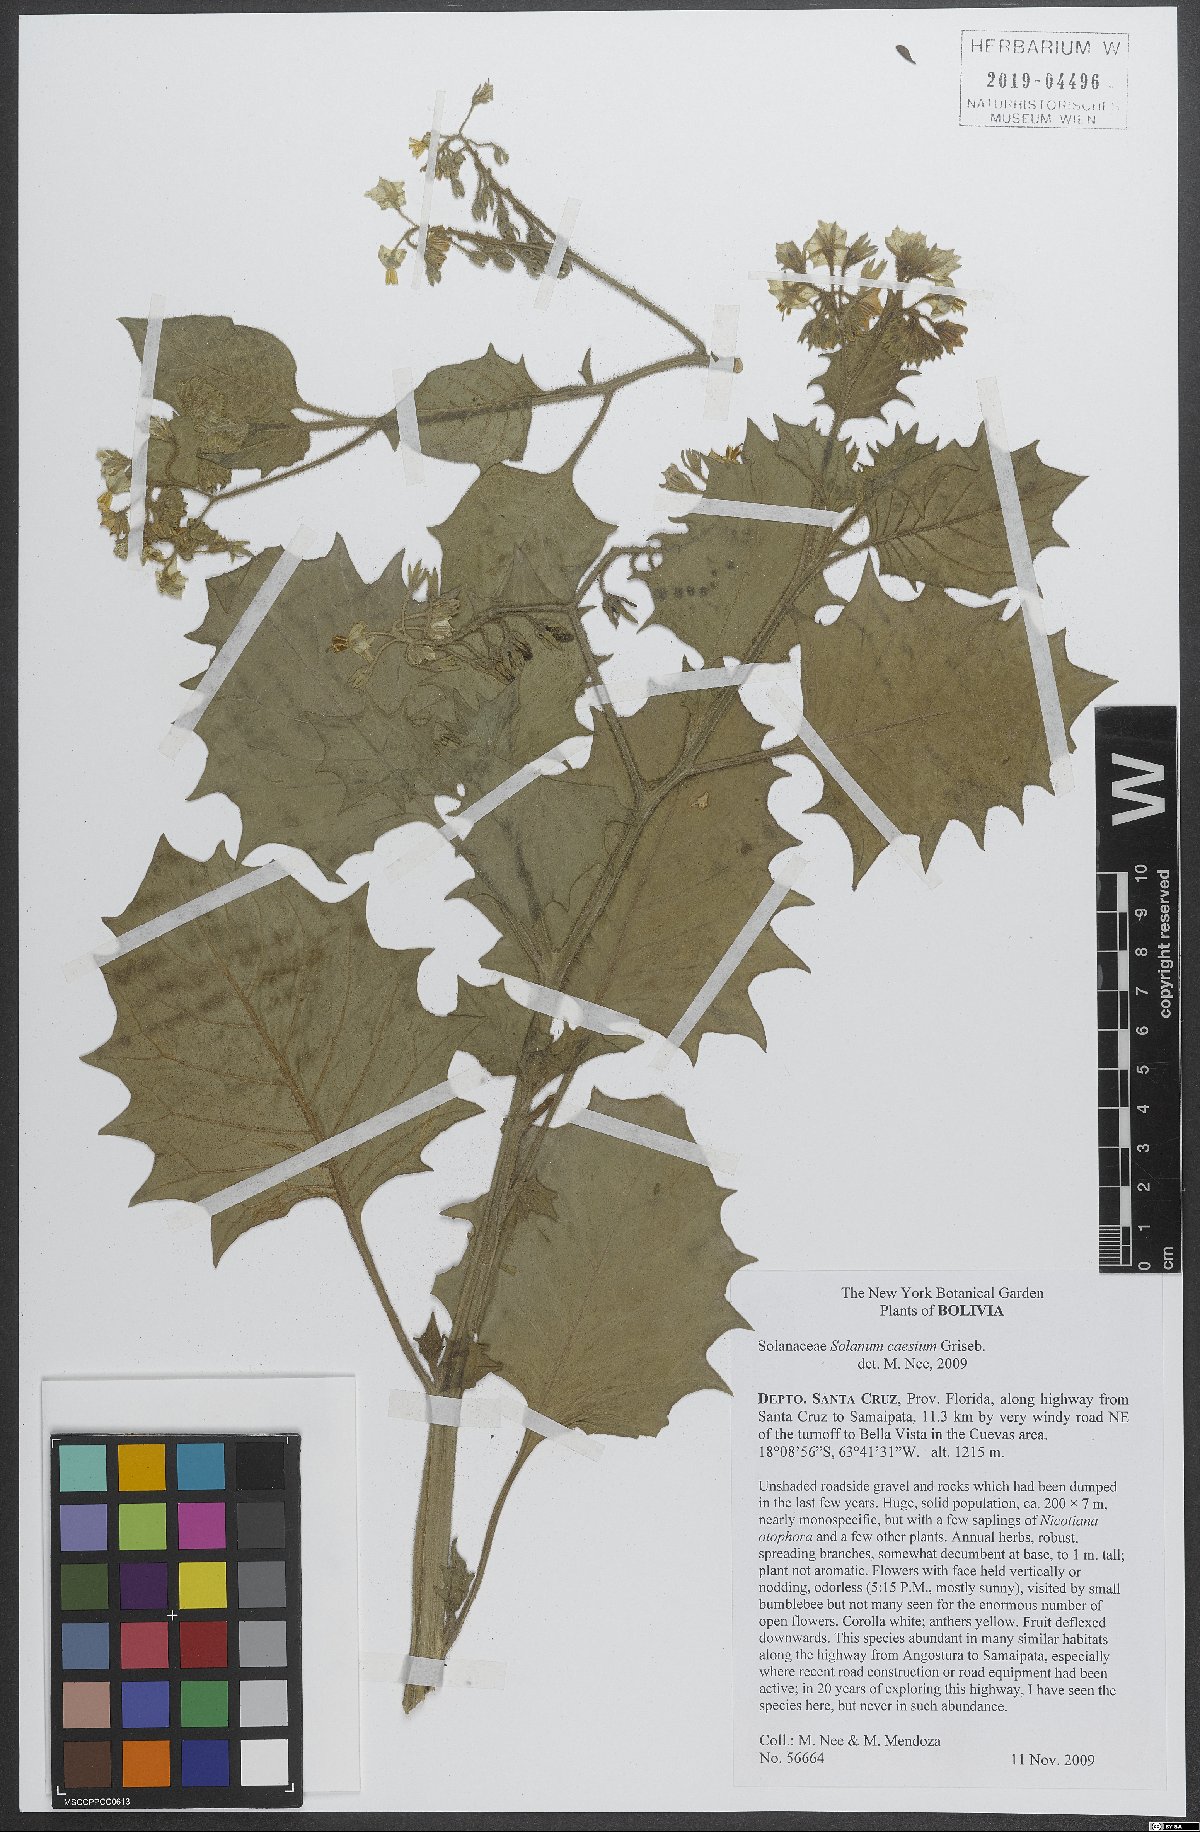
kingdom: Plantae
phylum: Tracheophyta
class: Magnoliopsida
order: Solanales
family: Solanaceae
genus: Solanum
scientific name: Solanum caesium
